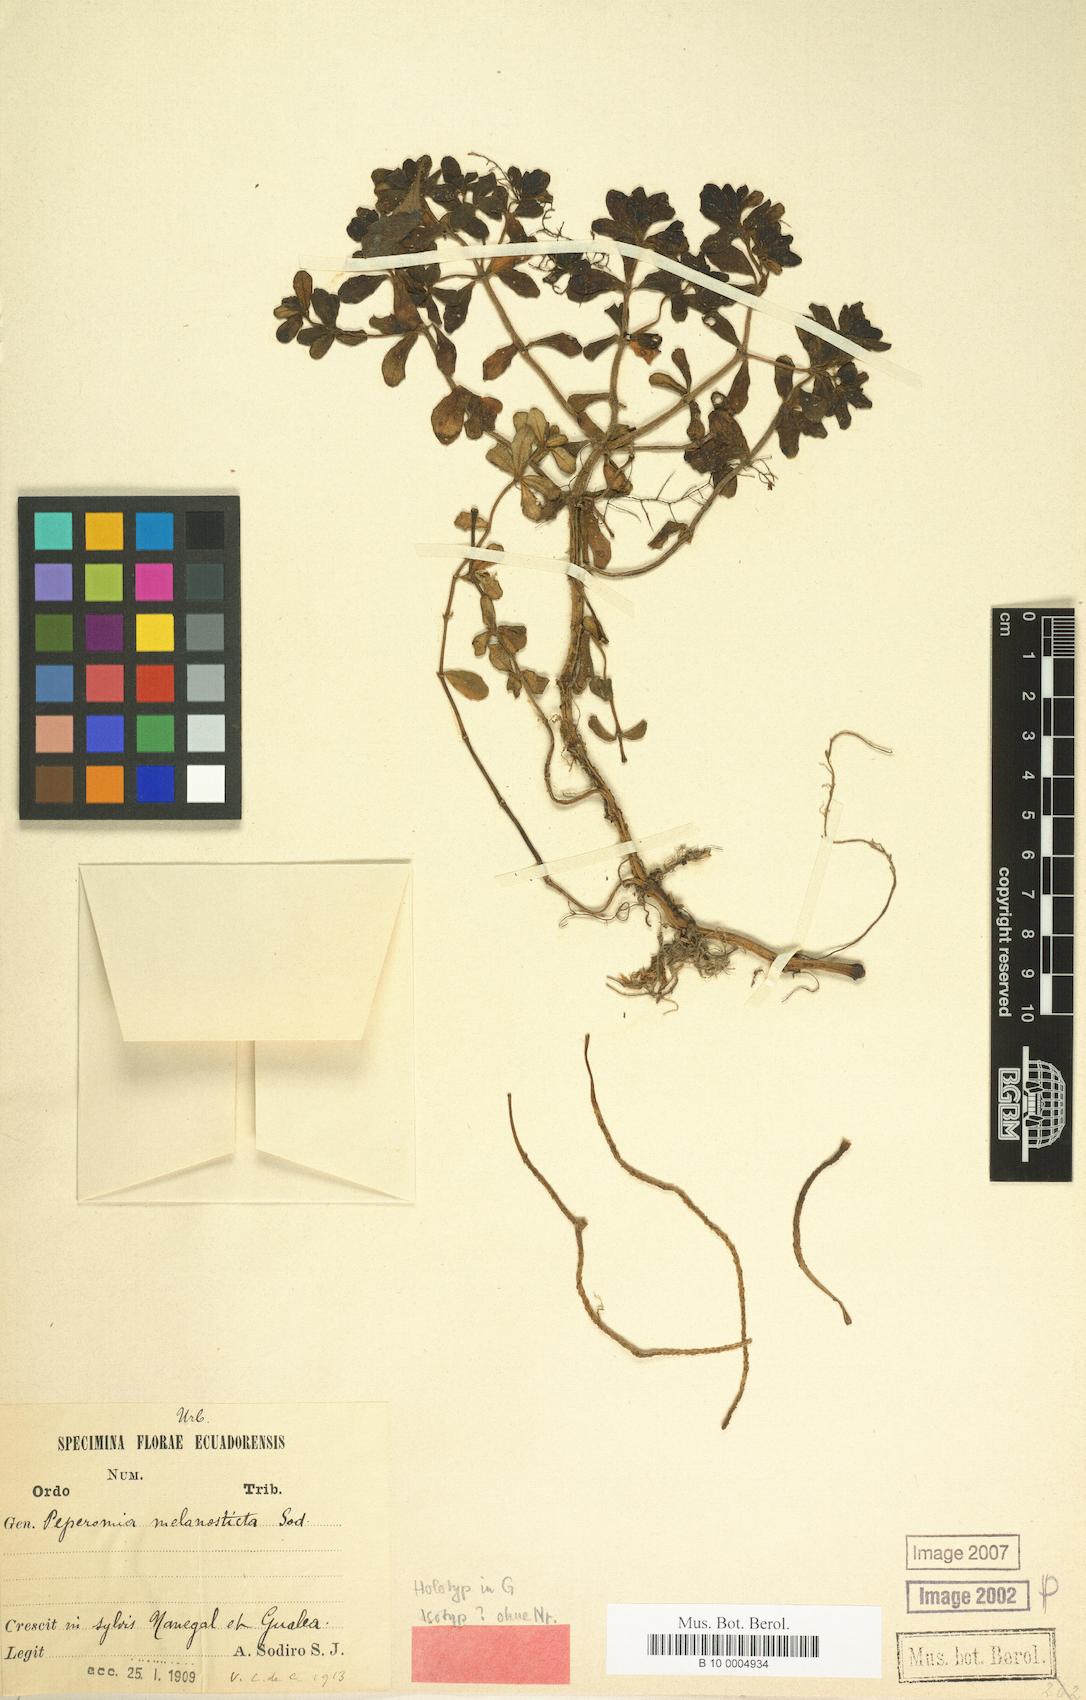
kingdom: Plantae
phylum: Tracheophyta
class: Magnoliopsida
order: Piperales
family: Piperaceae
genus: Peperomia
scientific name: Peperomia melanosticta
